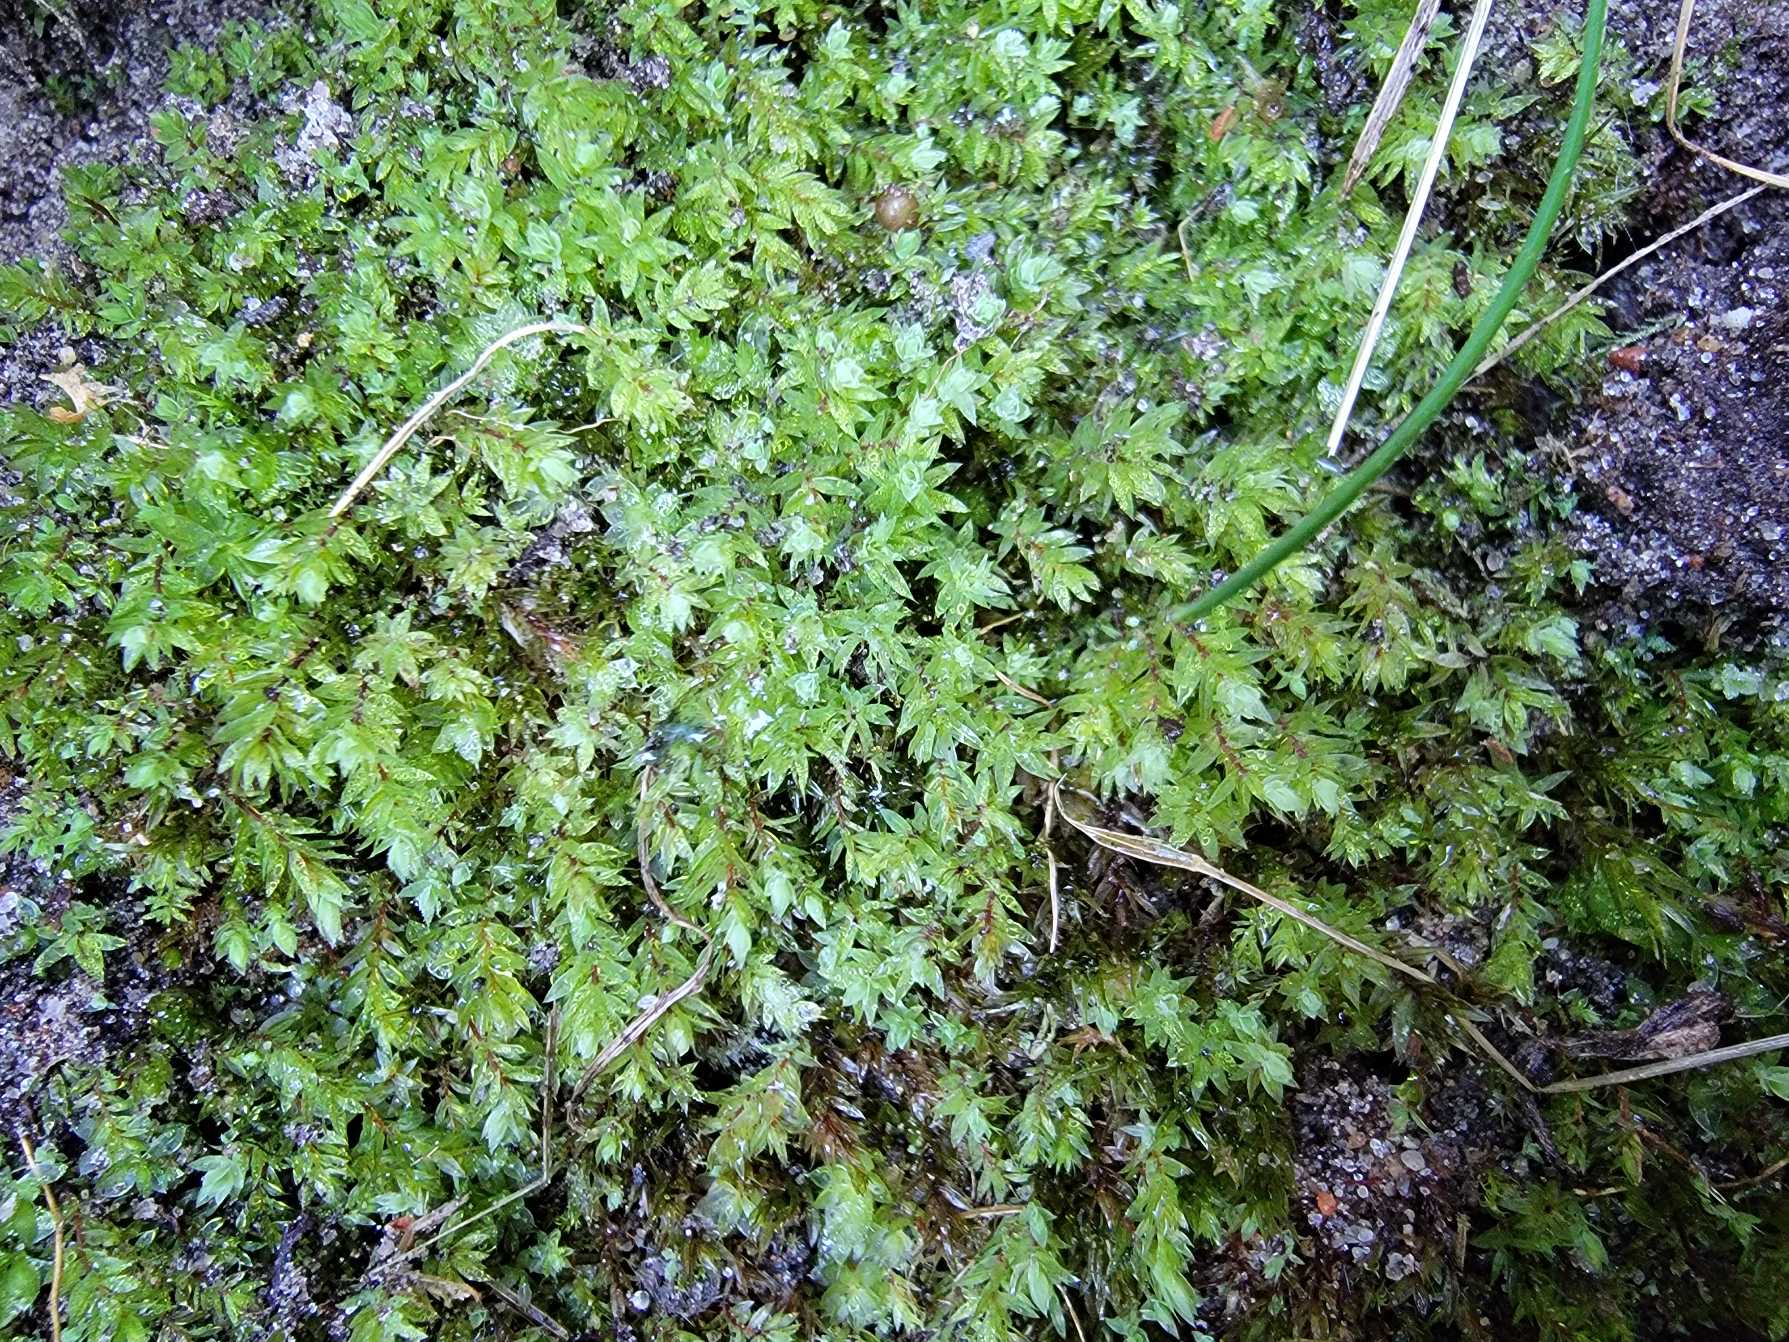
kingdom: Plantae
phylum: Bryophyta
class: Bryopsida
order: Bryales
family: Mniaceae
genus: Pohlia
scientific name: Pohlia cruda
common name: Opaliserende nikkemos
